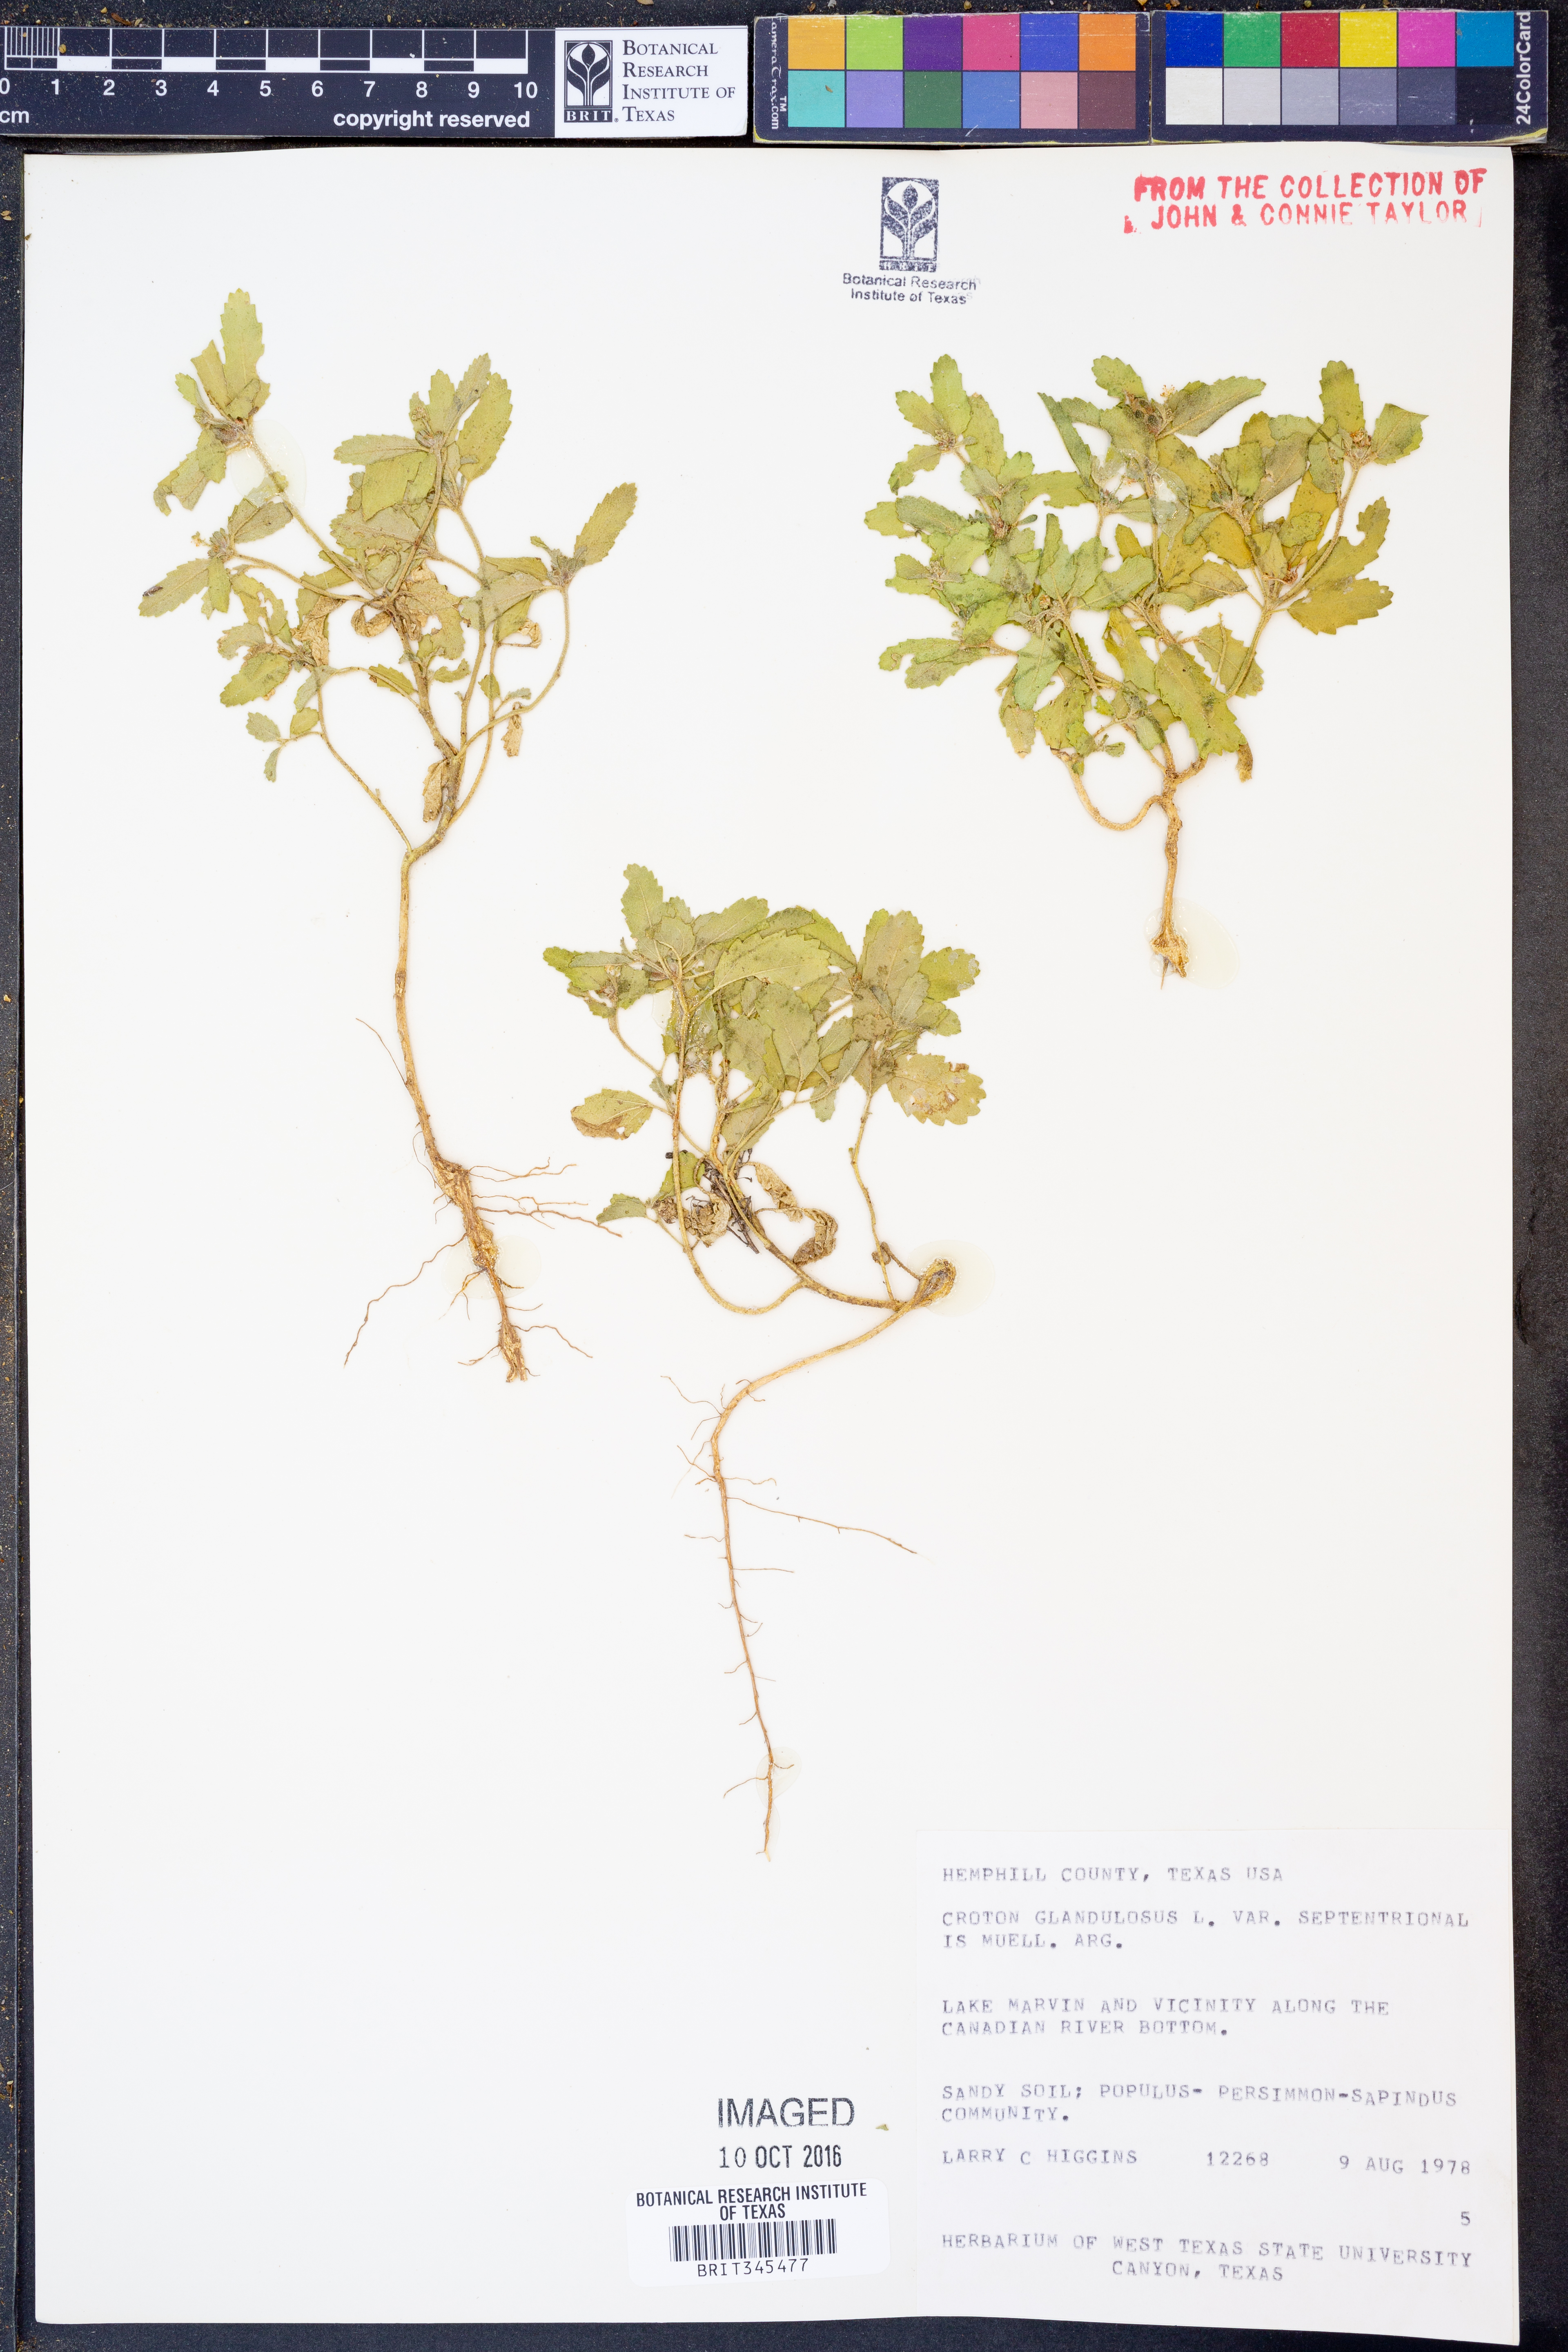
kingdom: Plantae
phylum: Tracheophyta
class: Magnoliopsida
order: Malpighiales
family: Euphorbiaceae
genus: Croton
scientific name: Croton glandulosus
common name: Tropic croton
